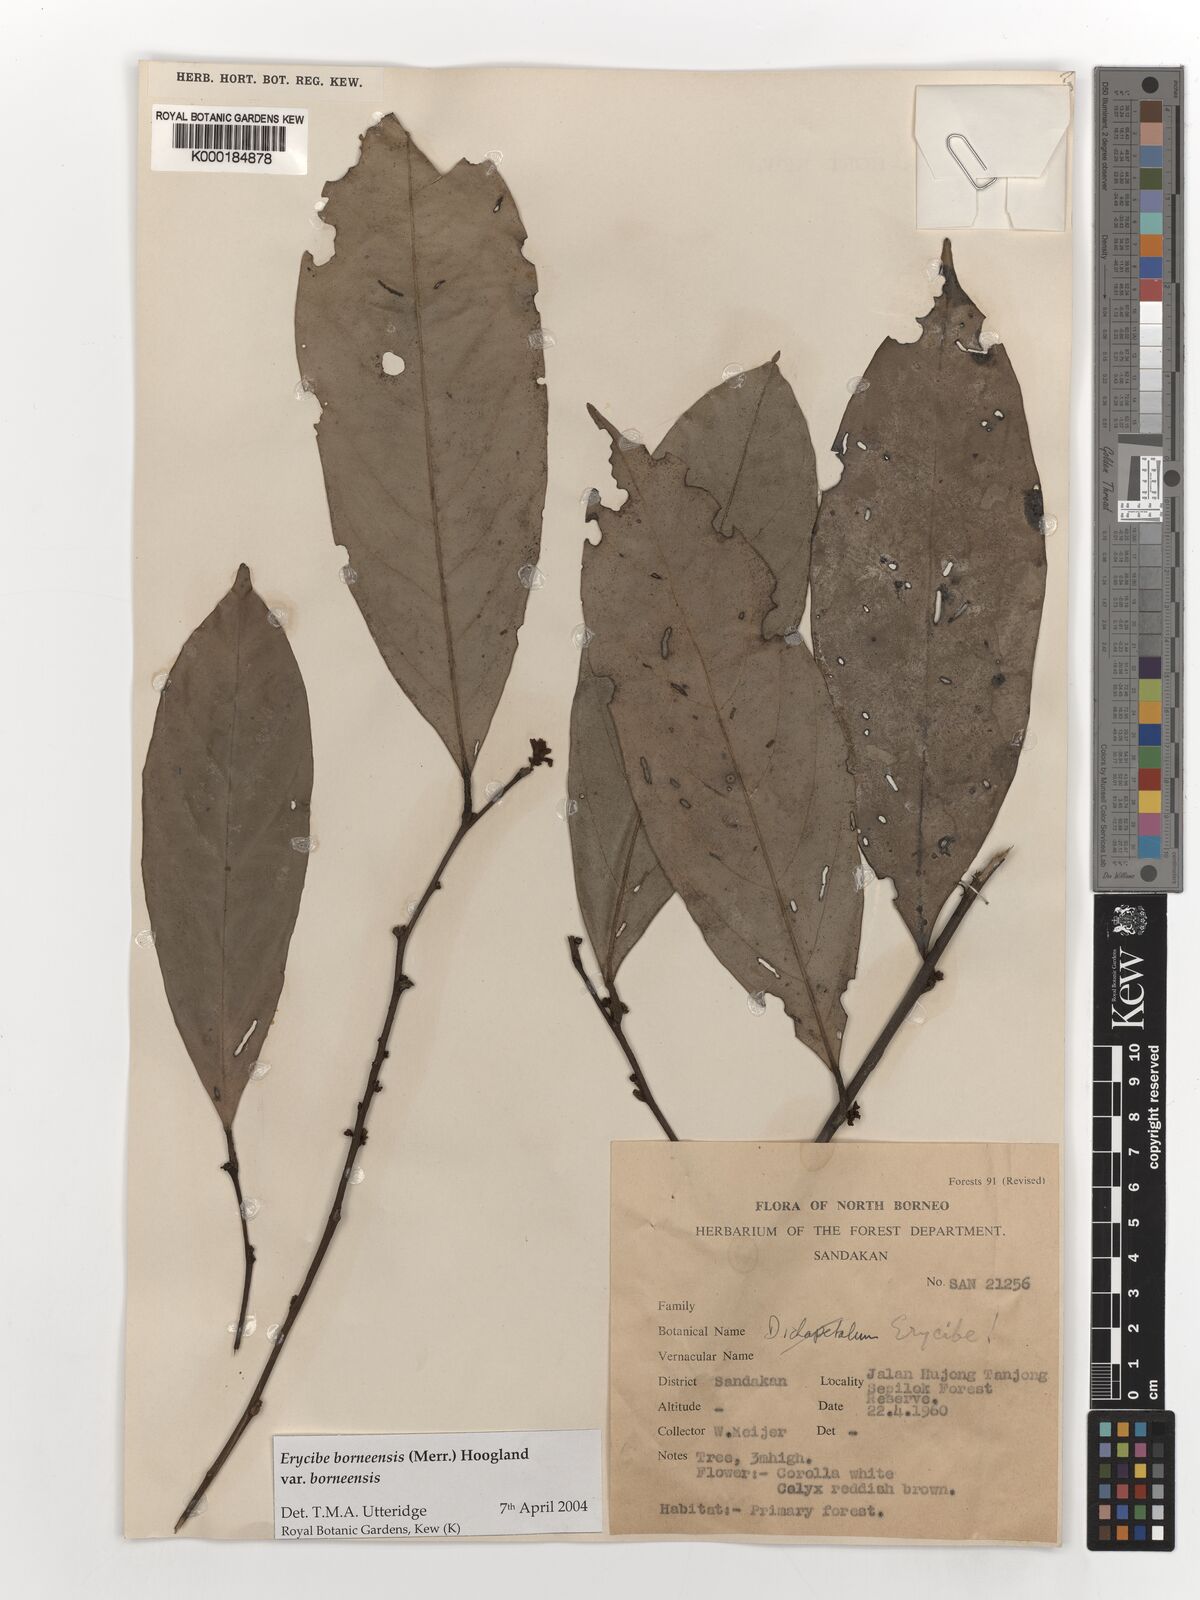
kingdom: Plantae
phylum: Tracheophyta
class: Magnoliopsida
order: Solanales
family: Convolvulaceae
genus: Erycibe
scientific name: Erycibe borneensis
